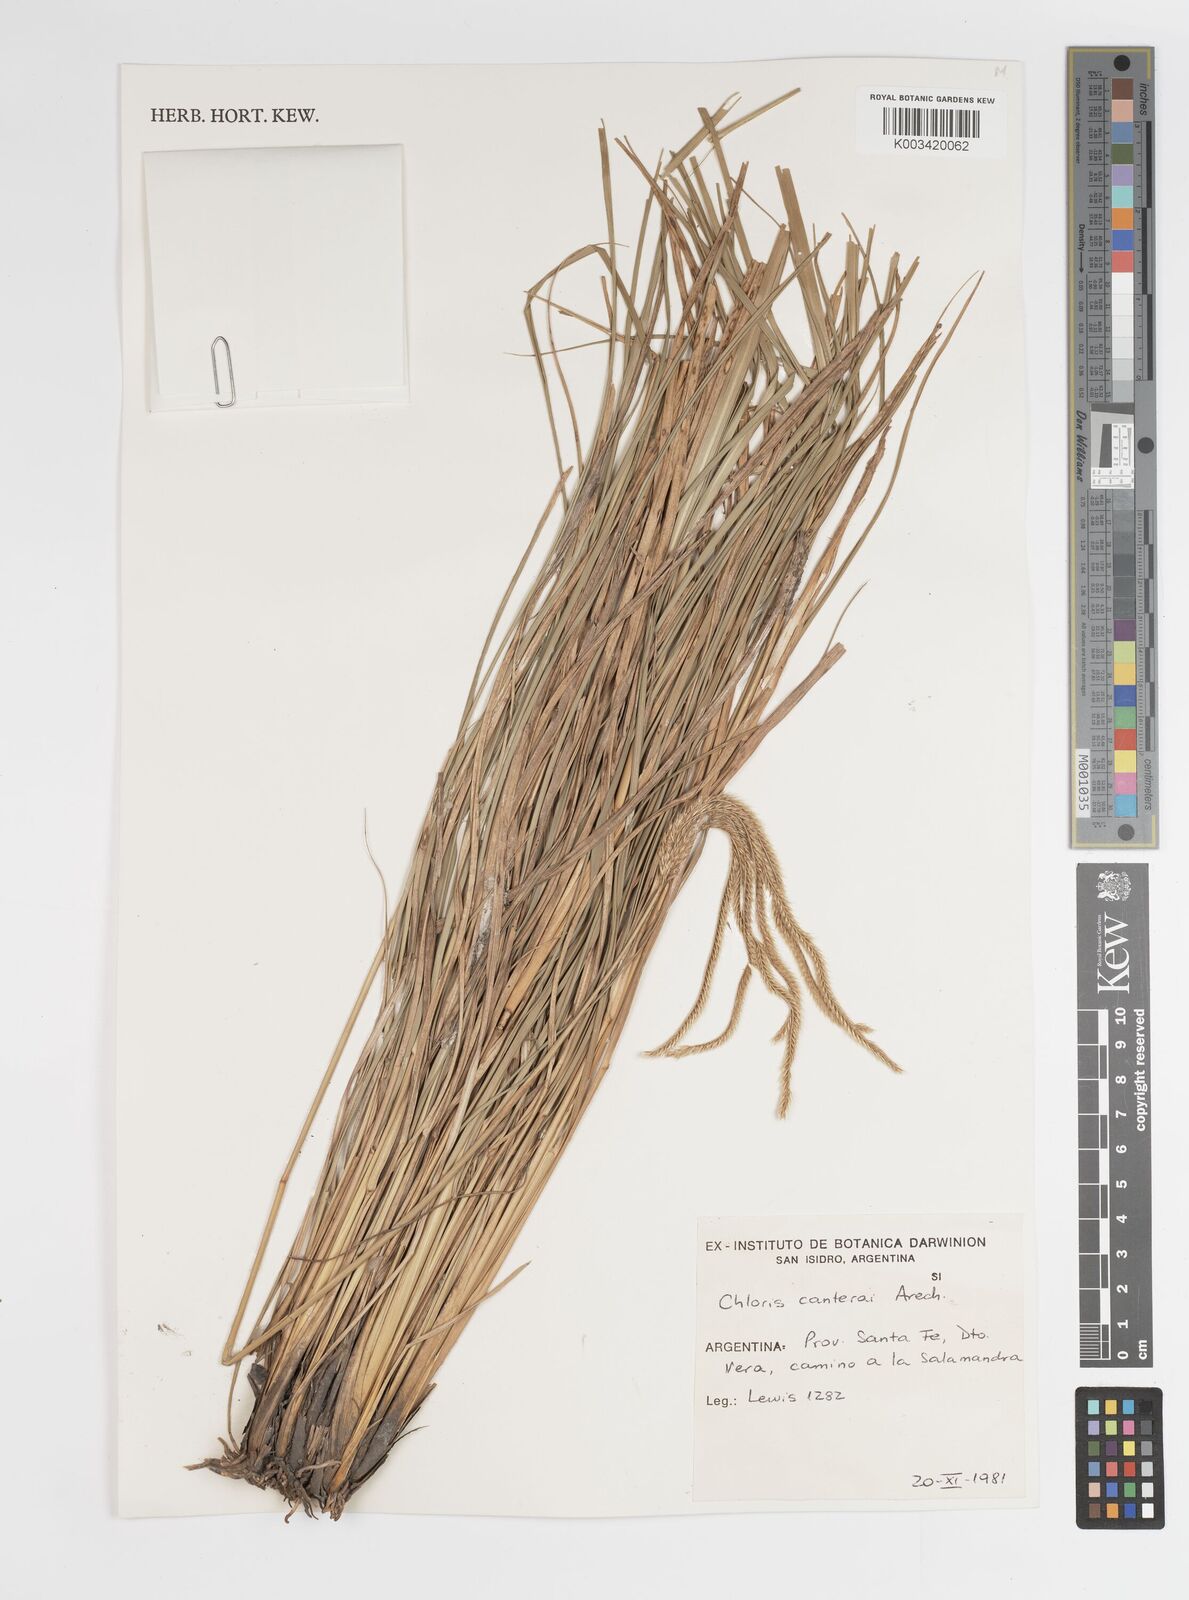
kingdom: Plantae
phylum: Tracheophyta
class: Liliopsida
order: Poales
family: Poaceae
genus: Stapfochloa
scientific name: Stapfochloa canterae
